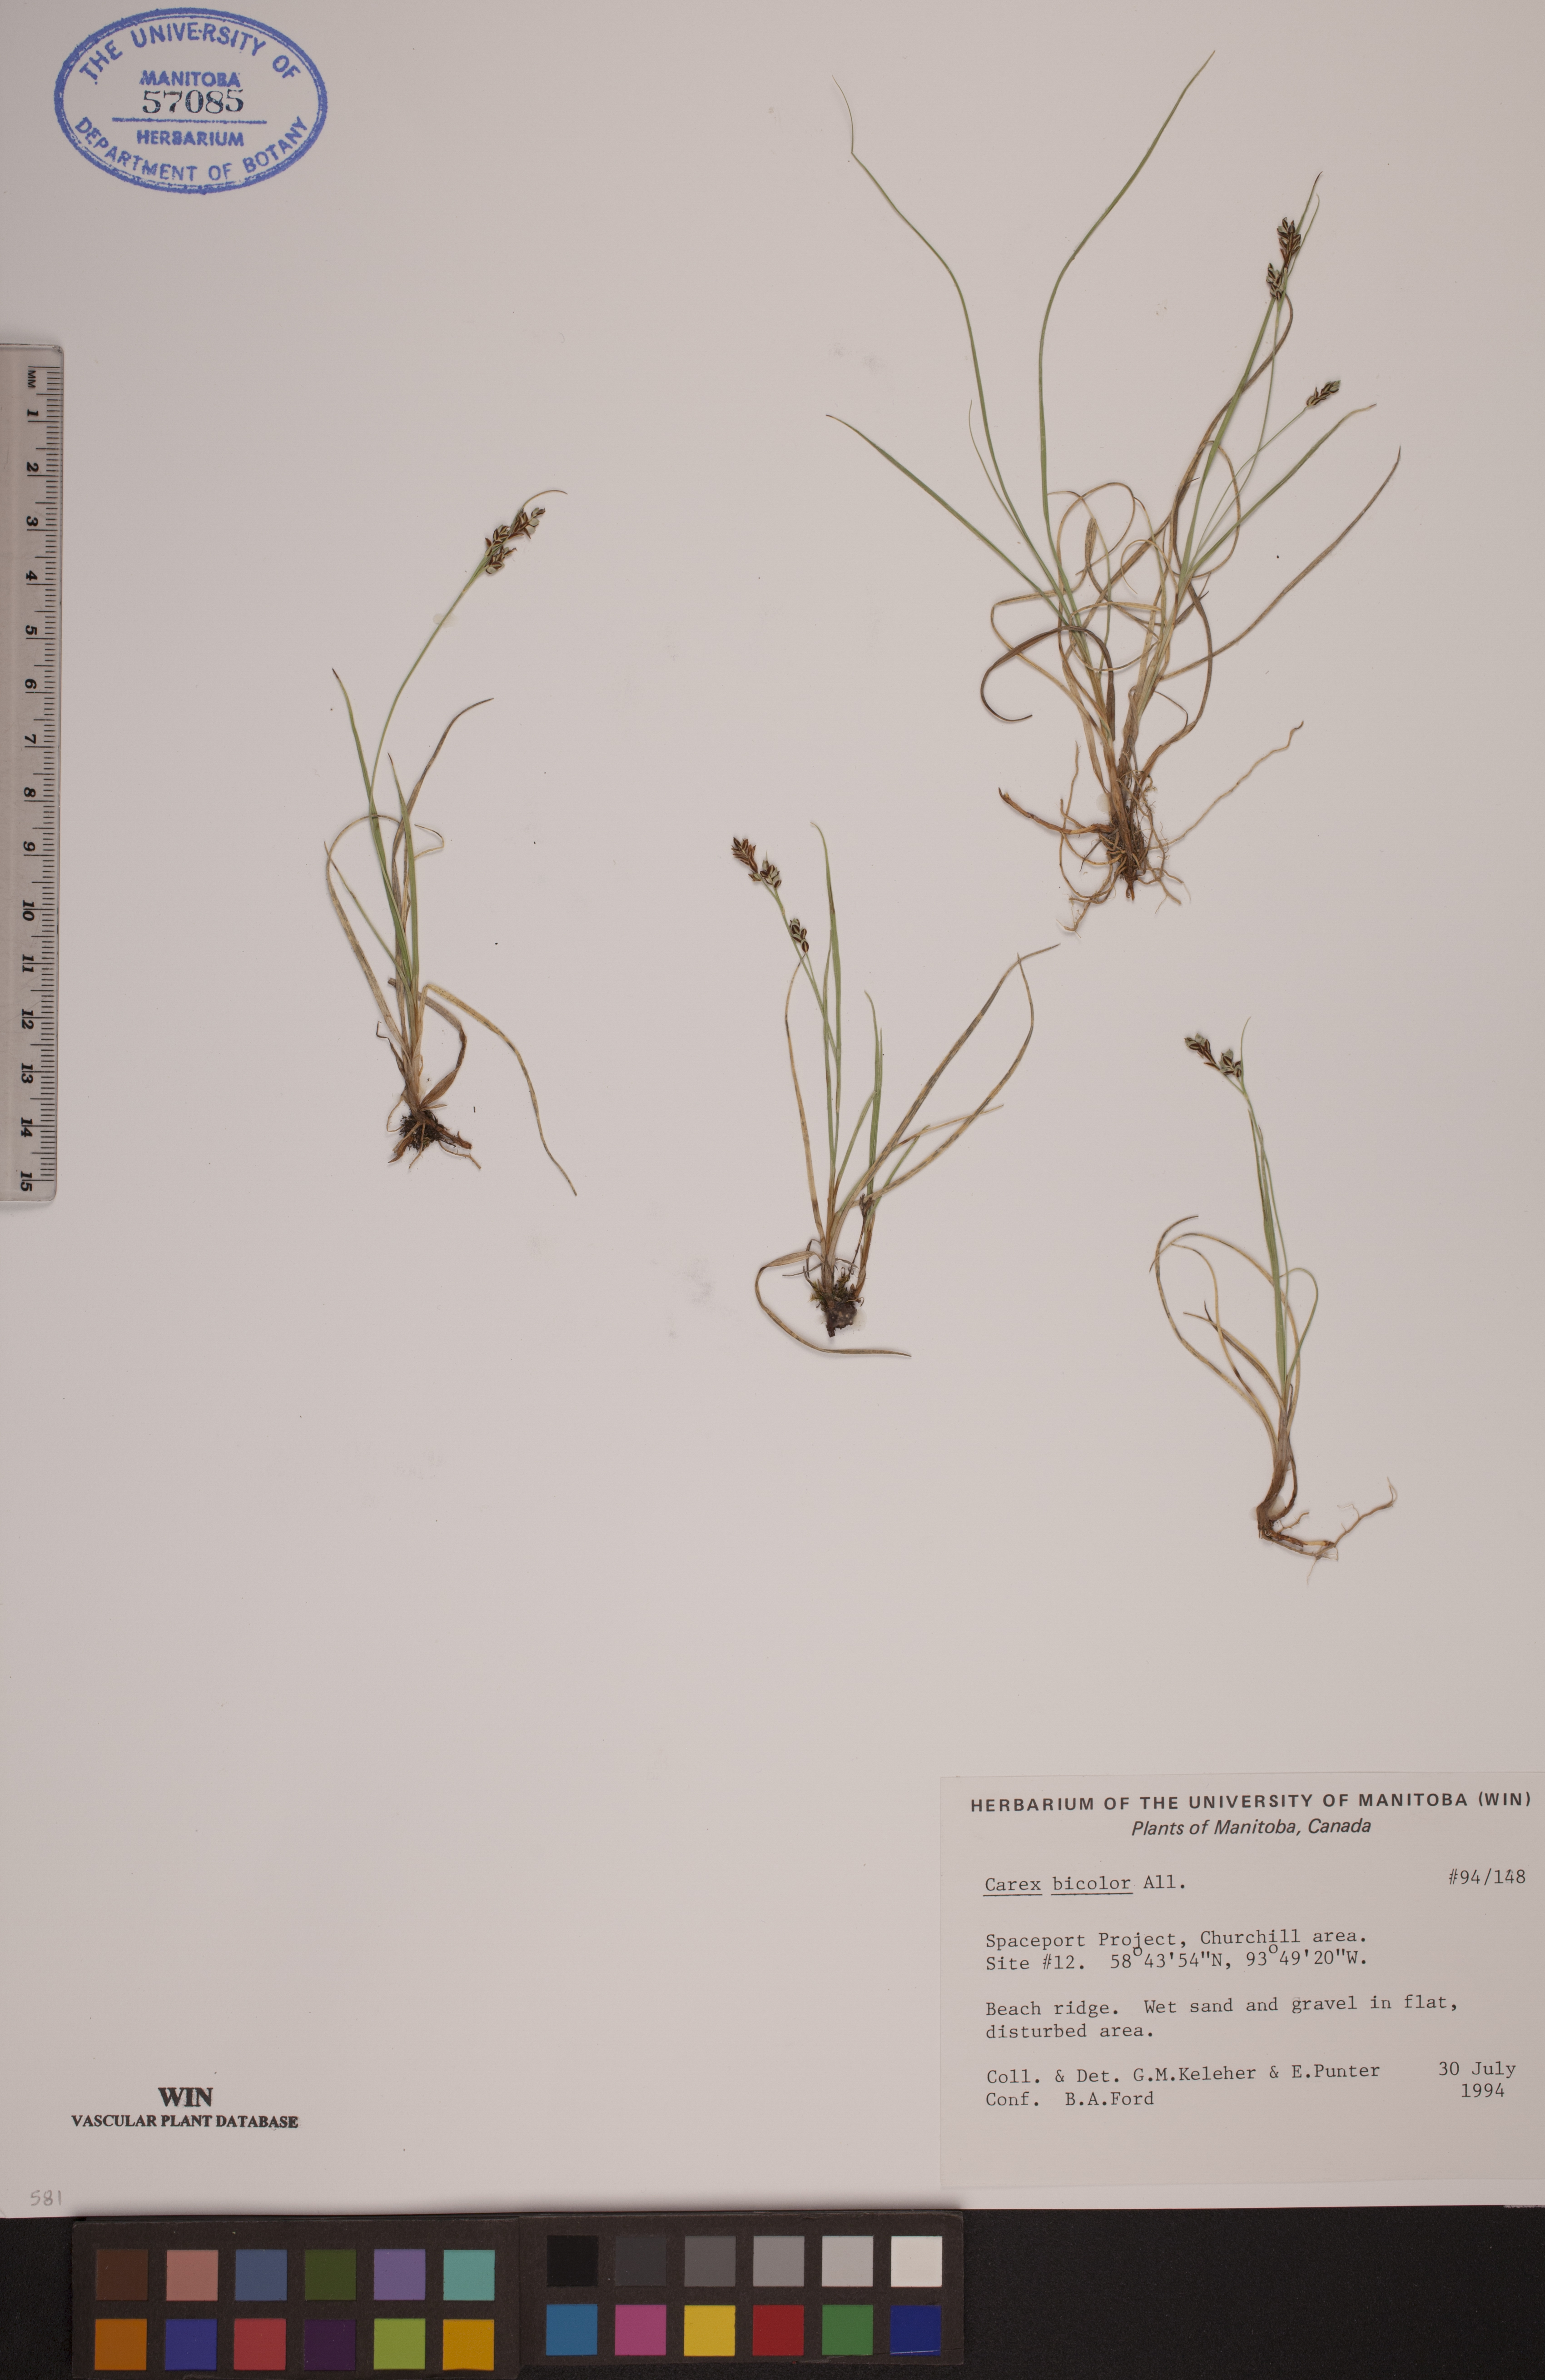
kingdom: Plantae
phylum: Tracheophyta
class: Liliopsida
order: Poales
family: Cyperaceae
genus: Carex
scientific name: Carex bicolor
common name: Bicoloured sedge
